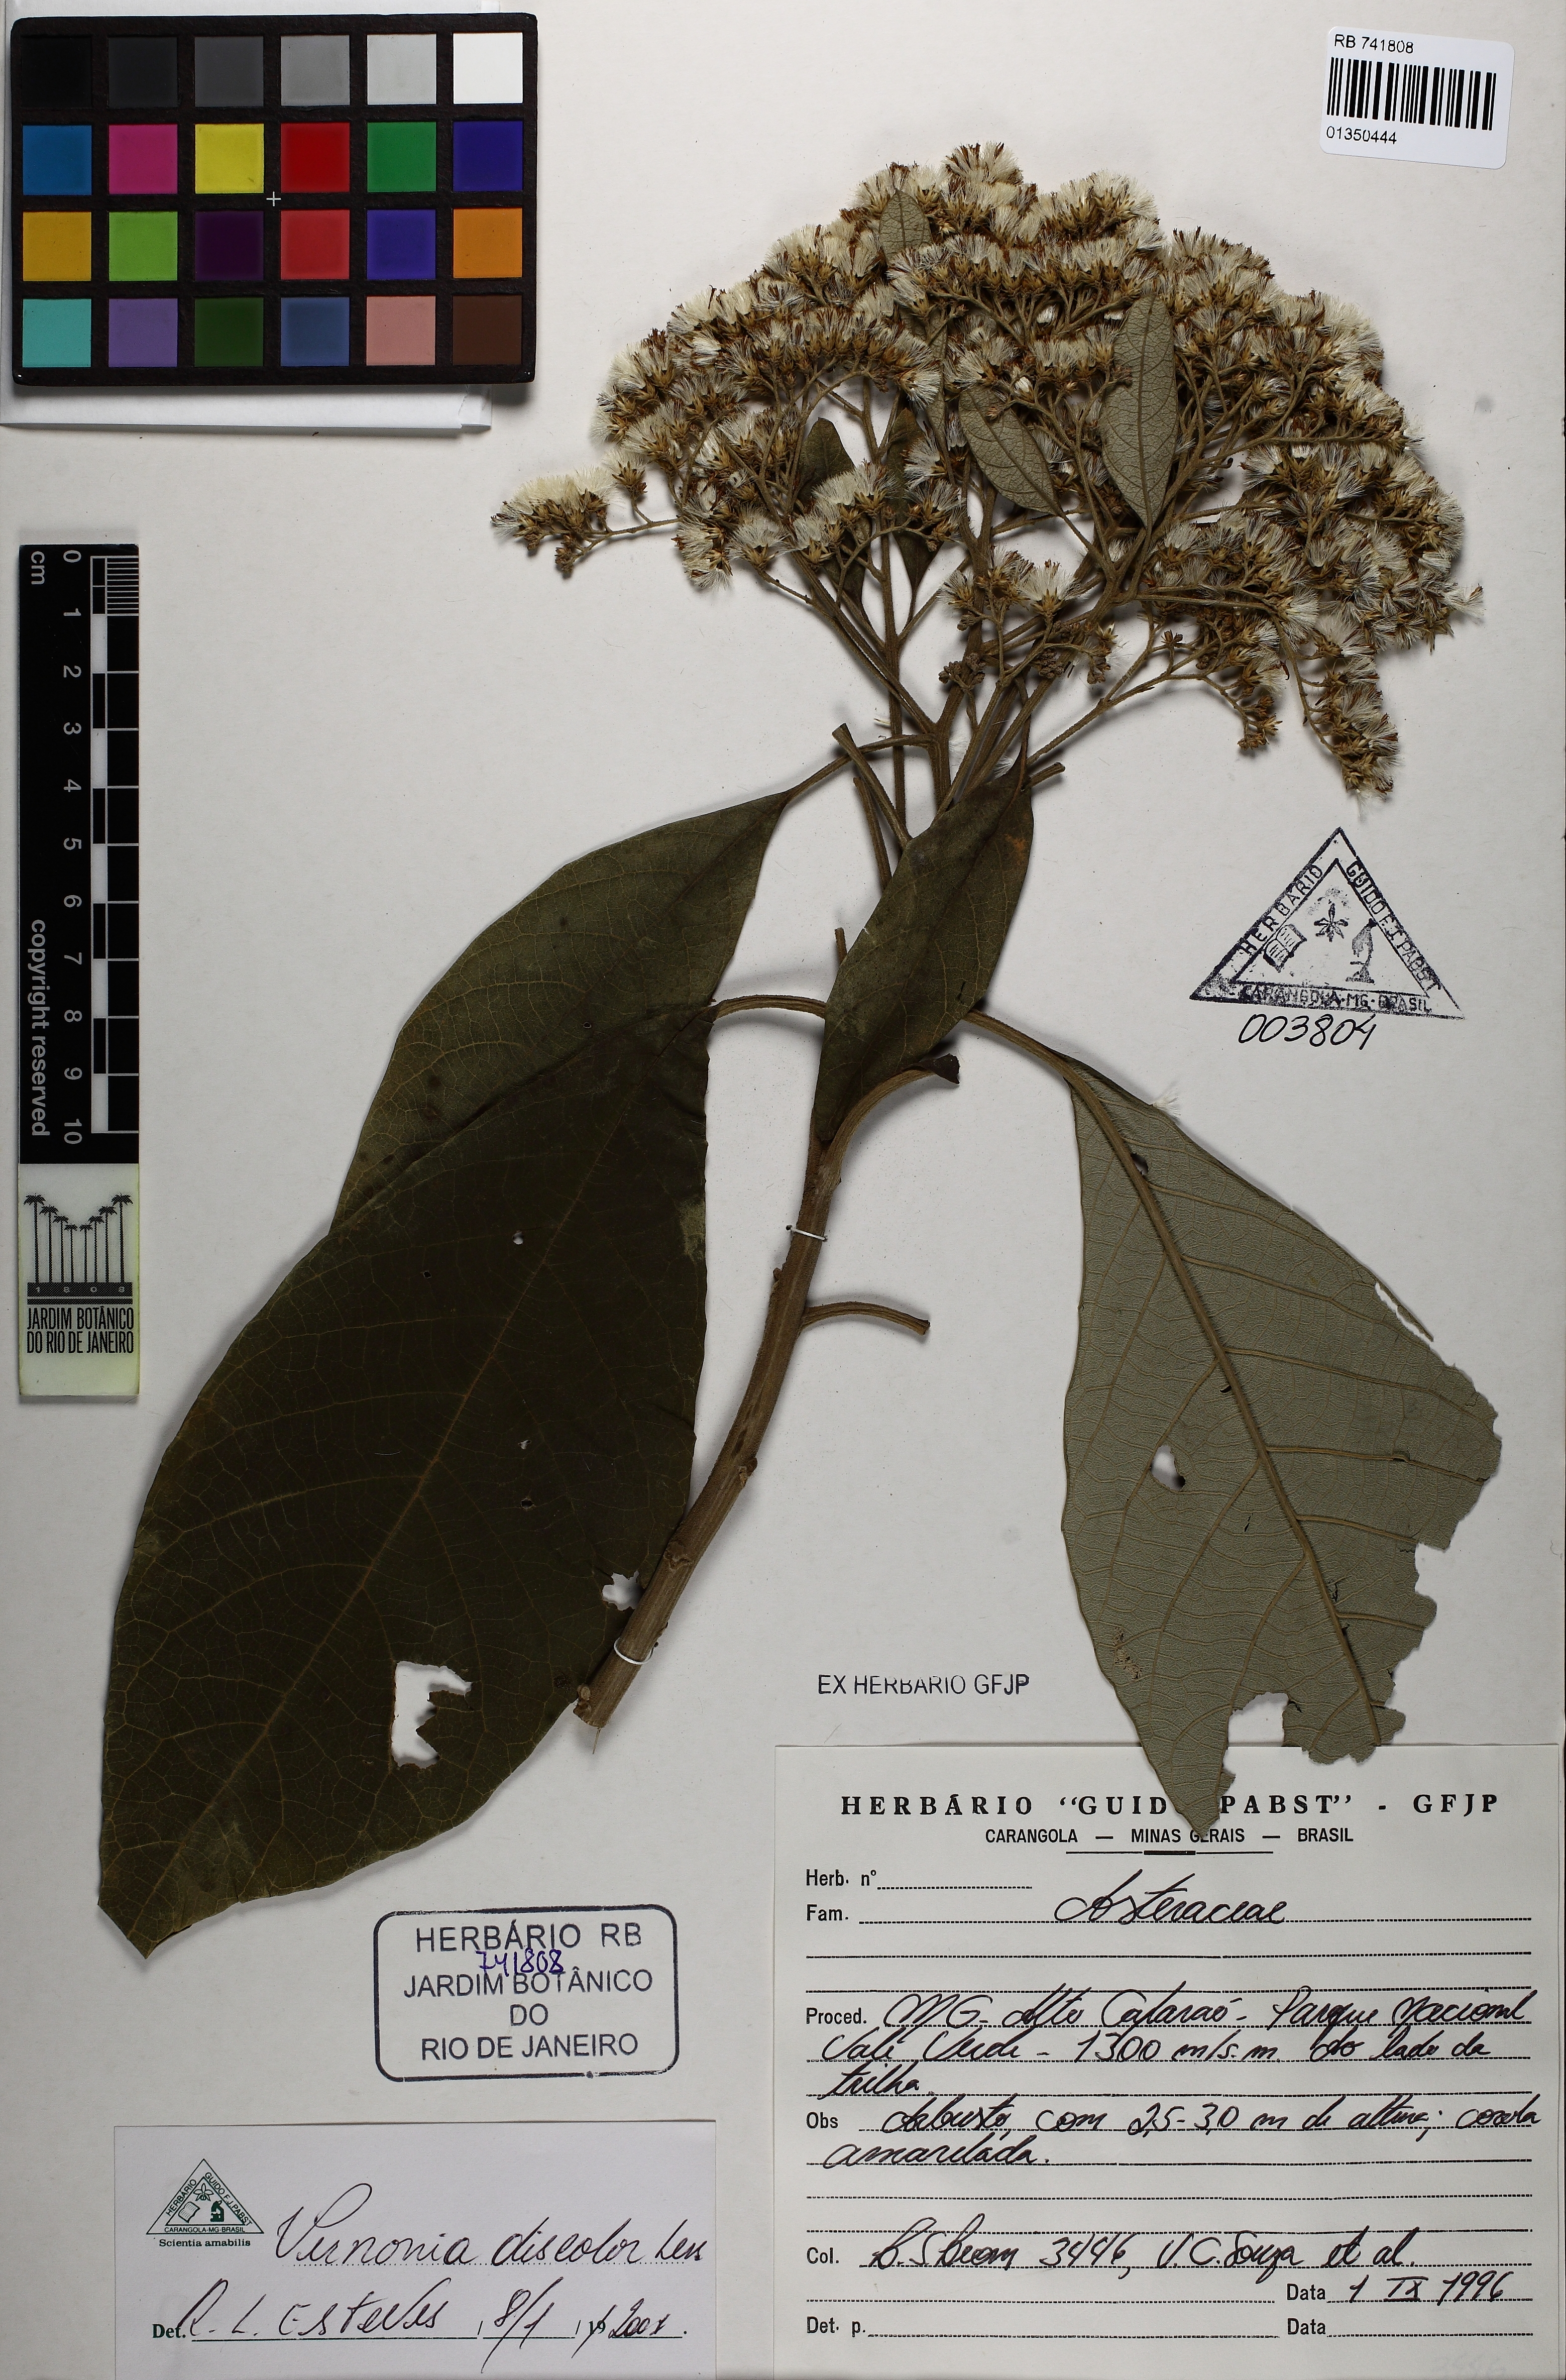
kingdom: Plantae
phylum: Tracheophyta
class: Magnoliopsida
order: Asterales
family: Asteraceae
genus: Vernonanthura
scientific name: Vernonanthura discolor
